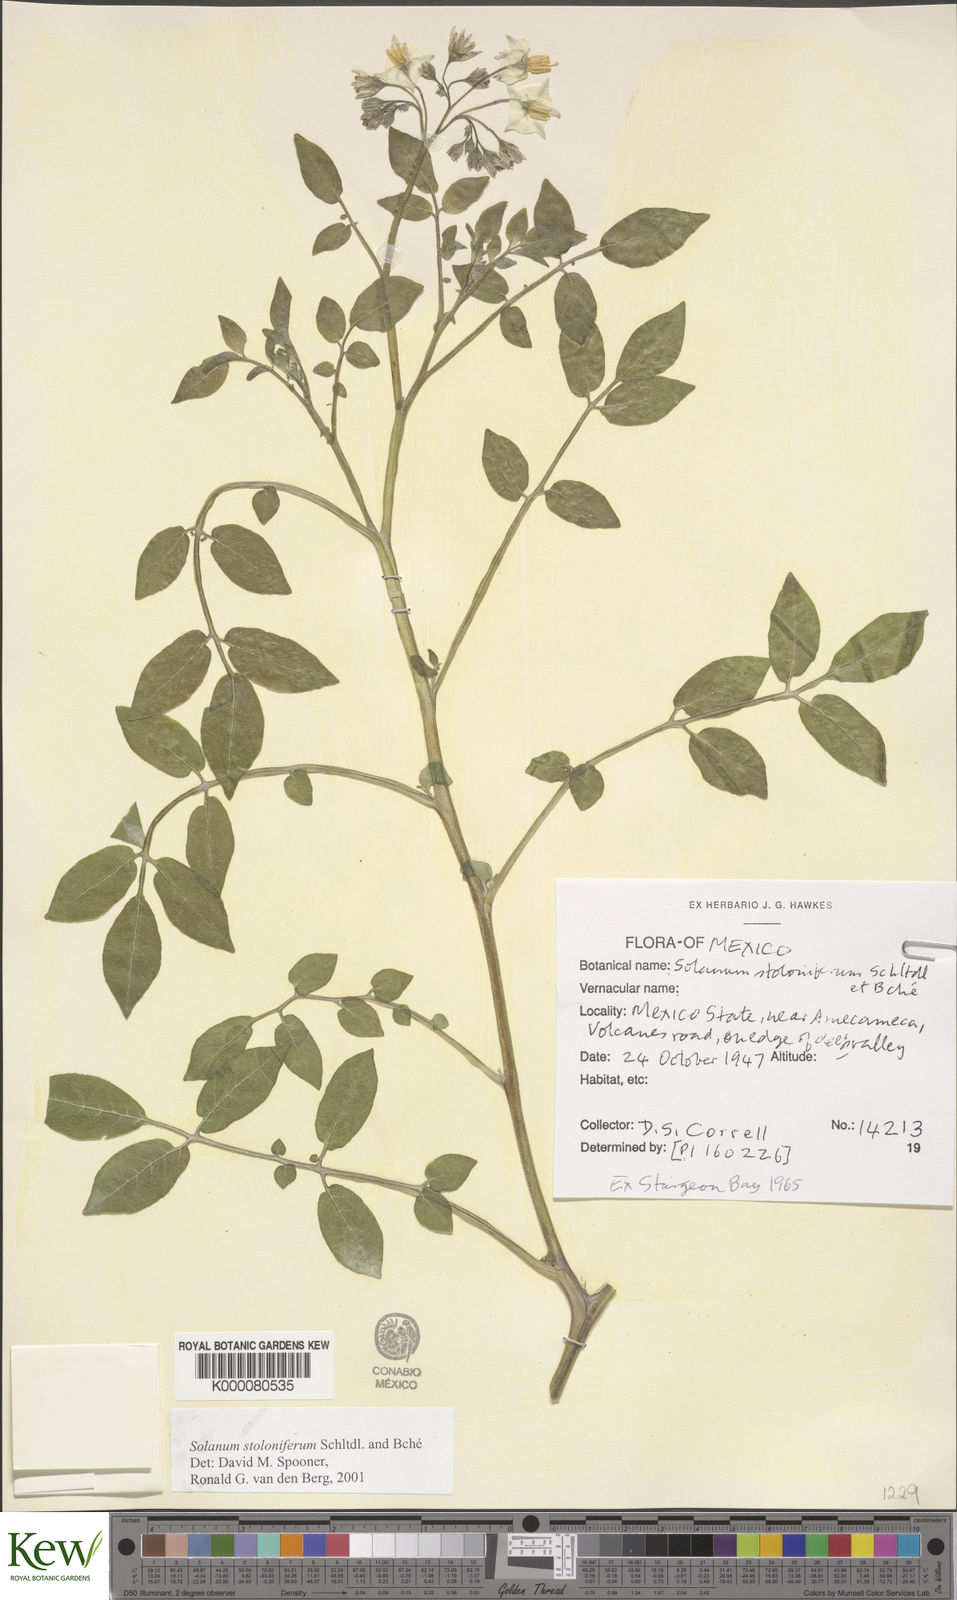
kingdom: Plantae
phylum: Tracheophyta
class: Magnoliopsida
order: Solanales
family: Solanaceae
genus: Solanum
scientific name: Solanum stoloniferum
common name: Fendler's nighshade
